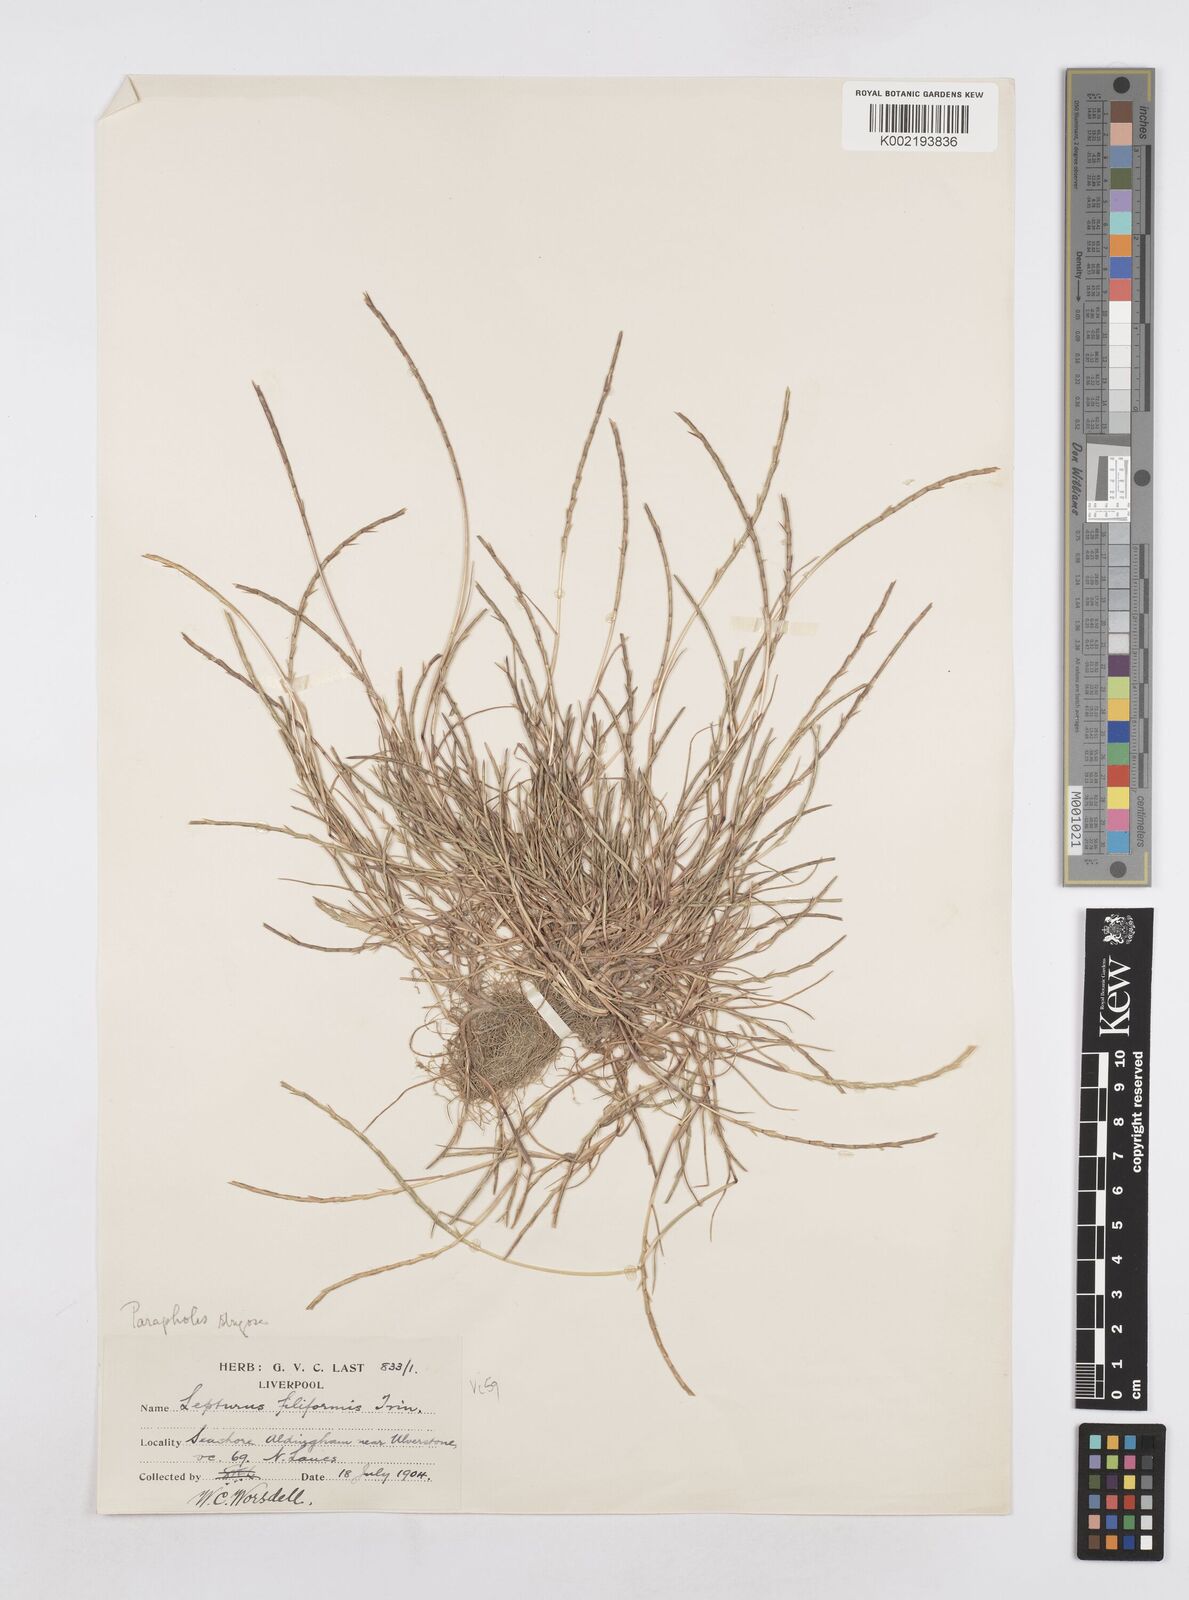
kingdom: Plantae
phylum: Tracheophyta
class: Liliopsida
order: Poales
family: Poaceae
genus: Parapholis
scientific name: Parapholis strigosa
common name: Hard-grass
